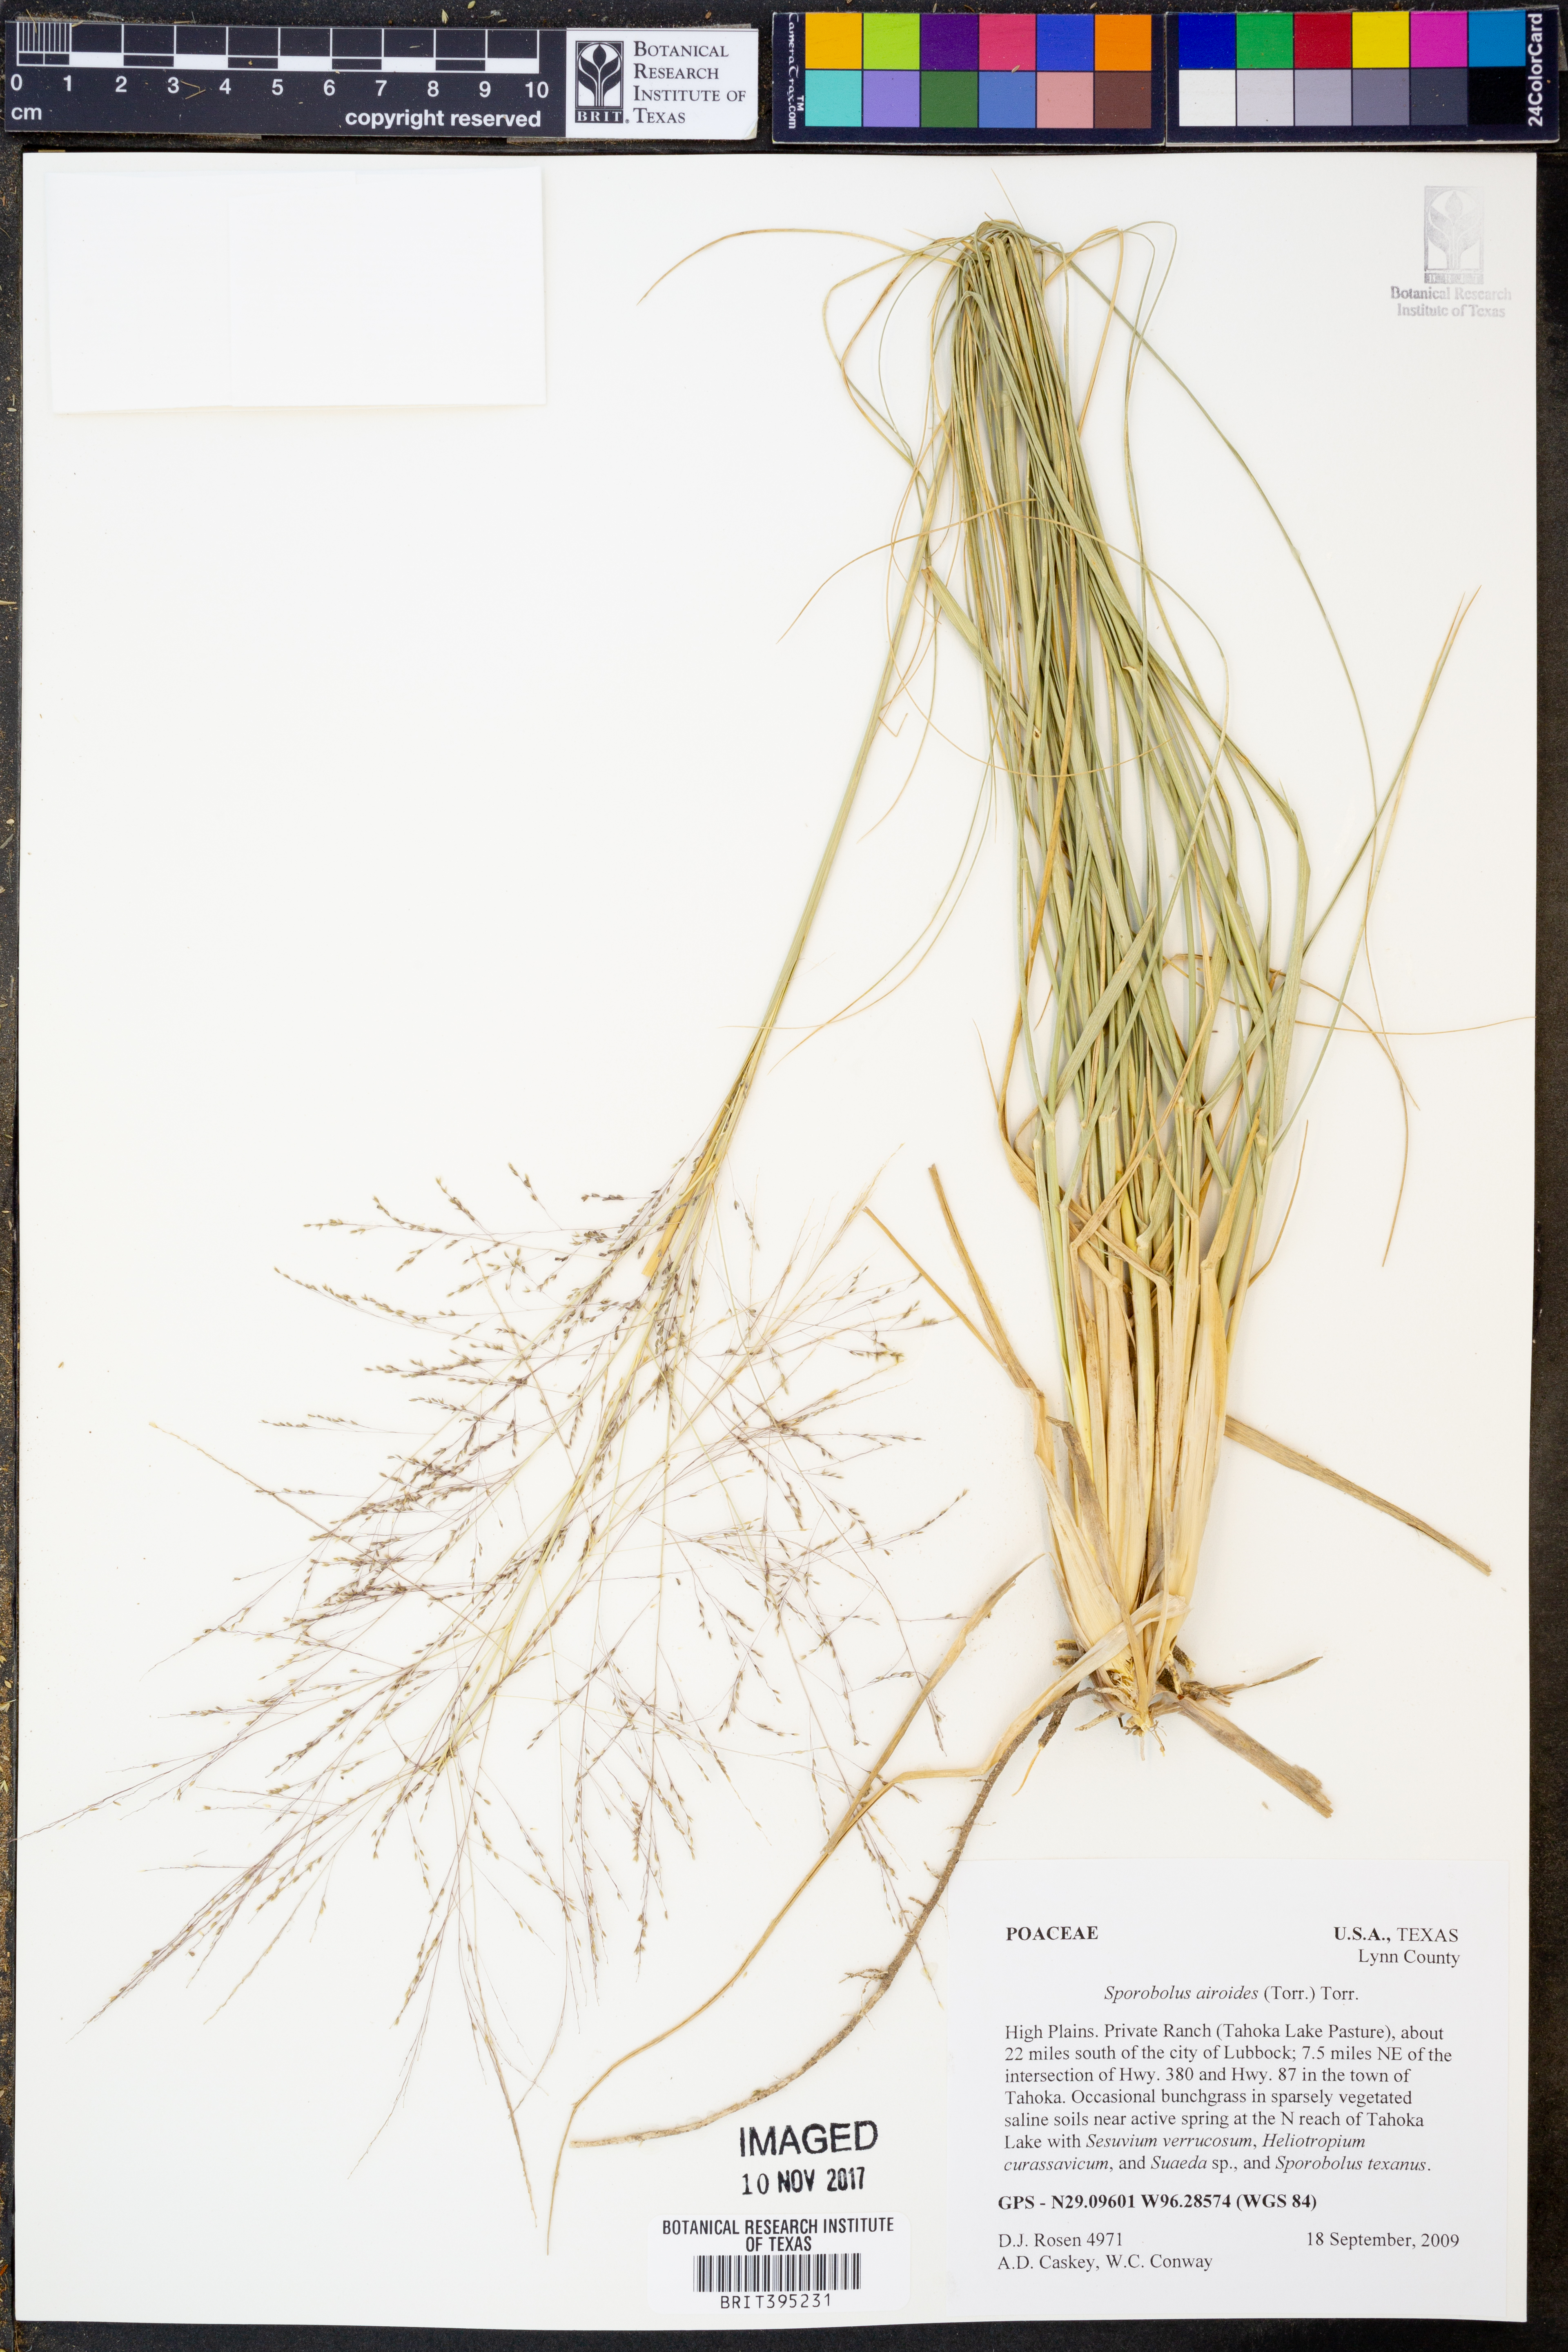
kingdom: Plantae
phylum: Tracheophyta
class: Liliopsida
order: Poales
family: Poaceae
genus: Sporobolus
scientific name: Sporobolus airoides
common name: Alkali sacaton
